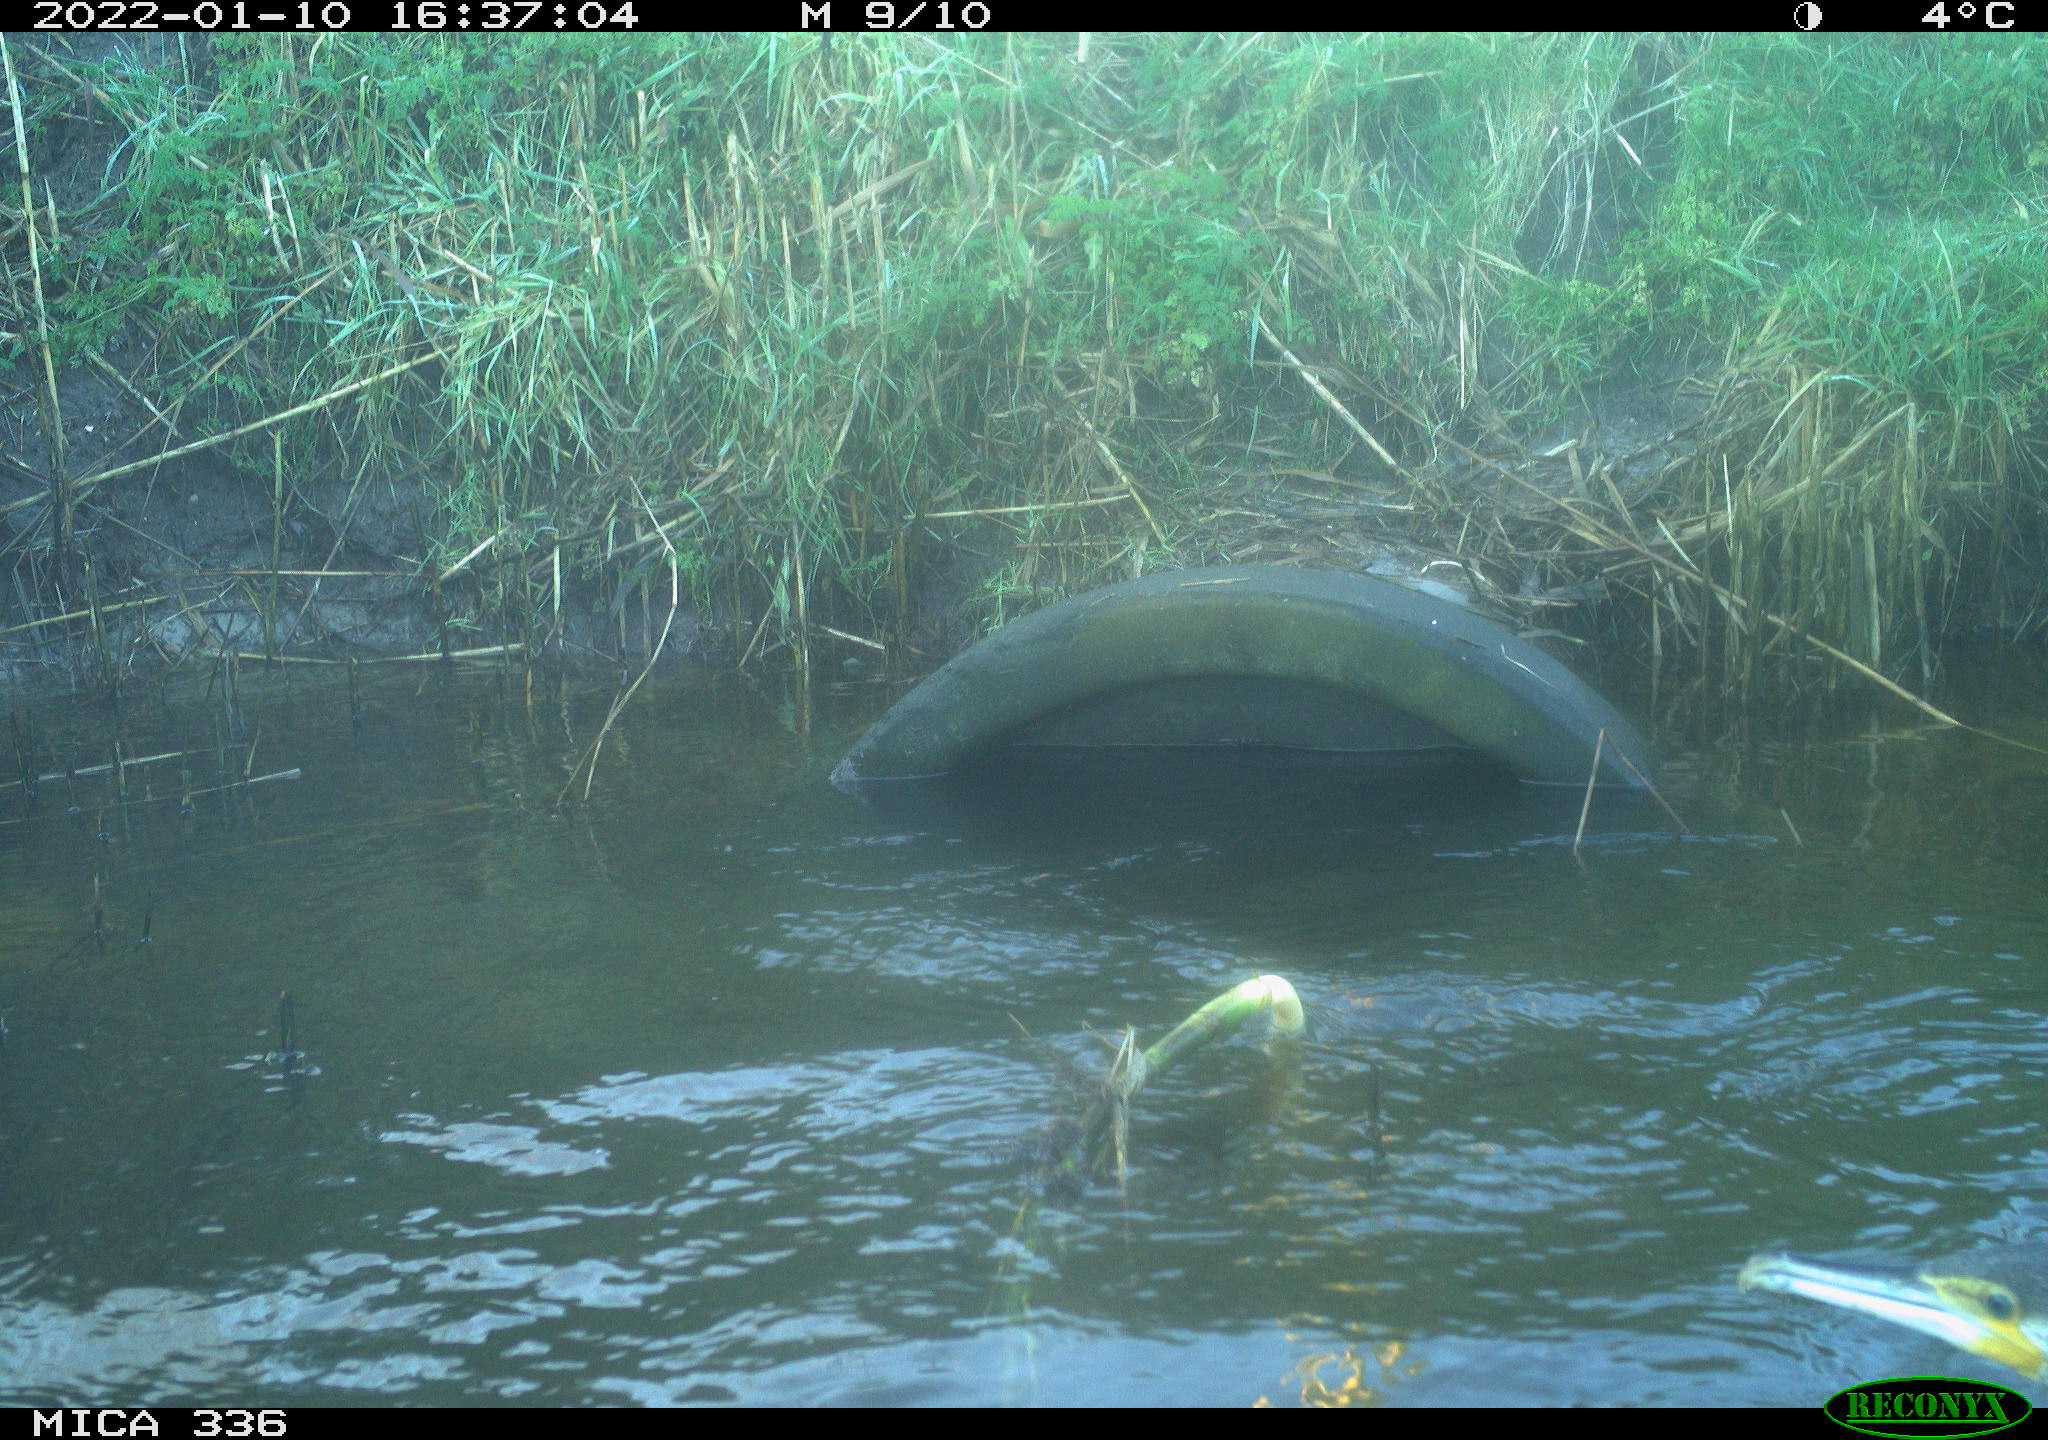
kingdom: Animalia
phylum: Chordata
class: Aves
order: Suliformes
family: Phalacrocoracidae
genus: Phalacrocorax
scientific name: Phalacrocorax carbo
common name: Great cormorant
